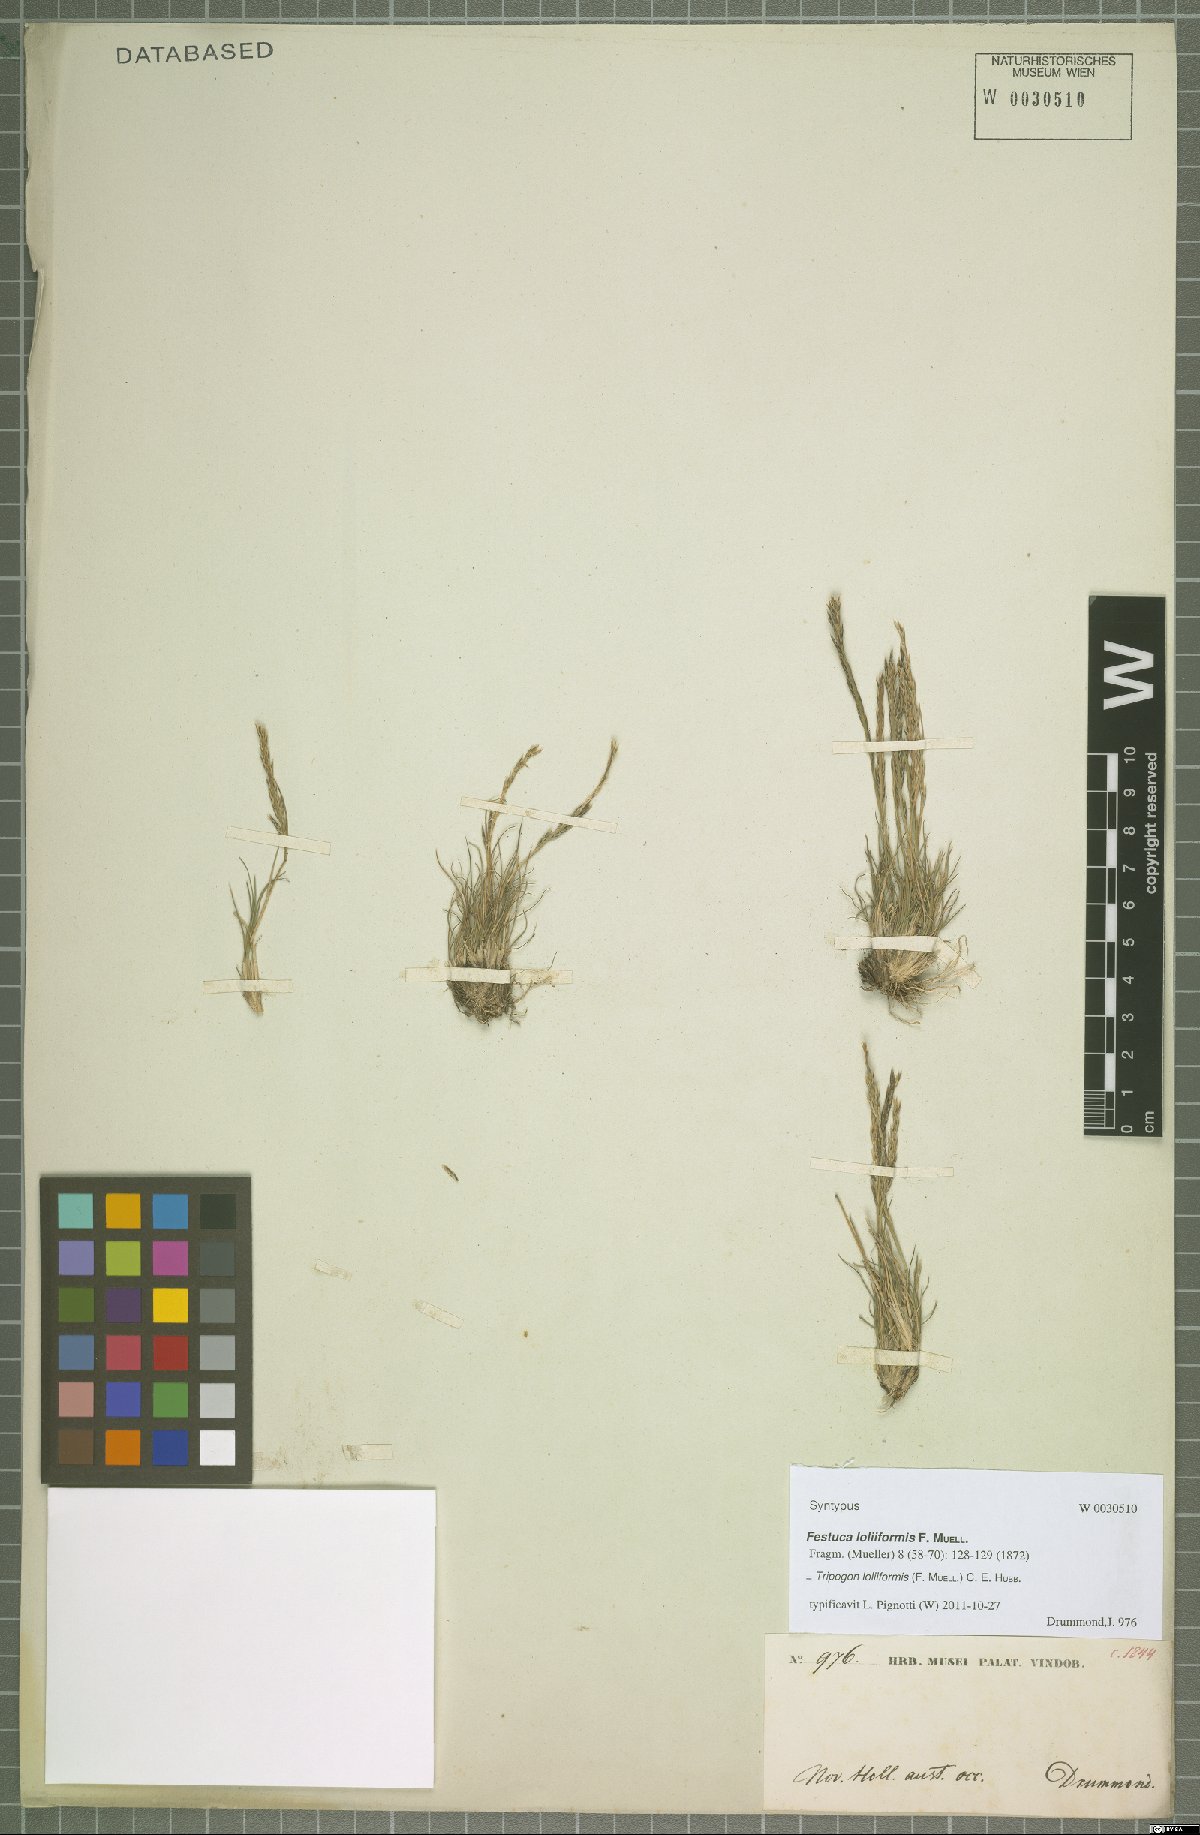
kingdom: Plantae
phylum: Tracheophyta
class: Liliopsida
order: Poales
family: Poaceae
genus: Tripogonella
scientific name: Tripogonella loliiformis
